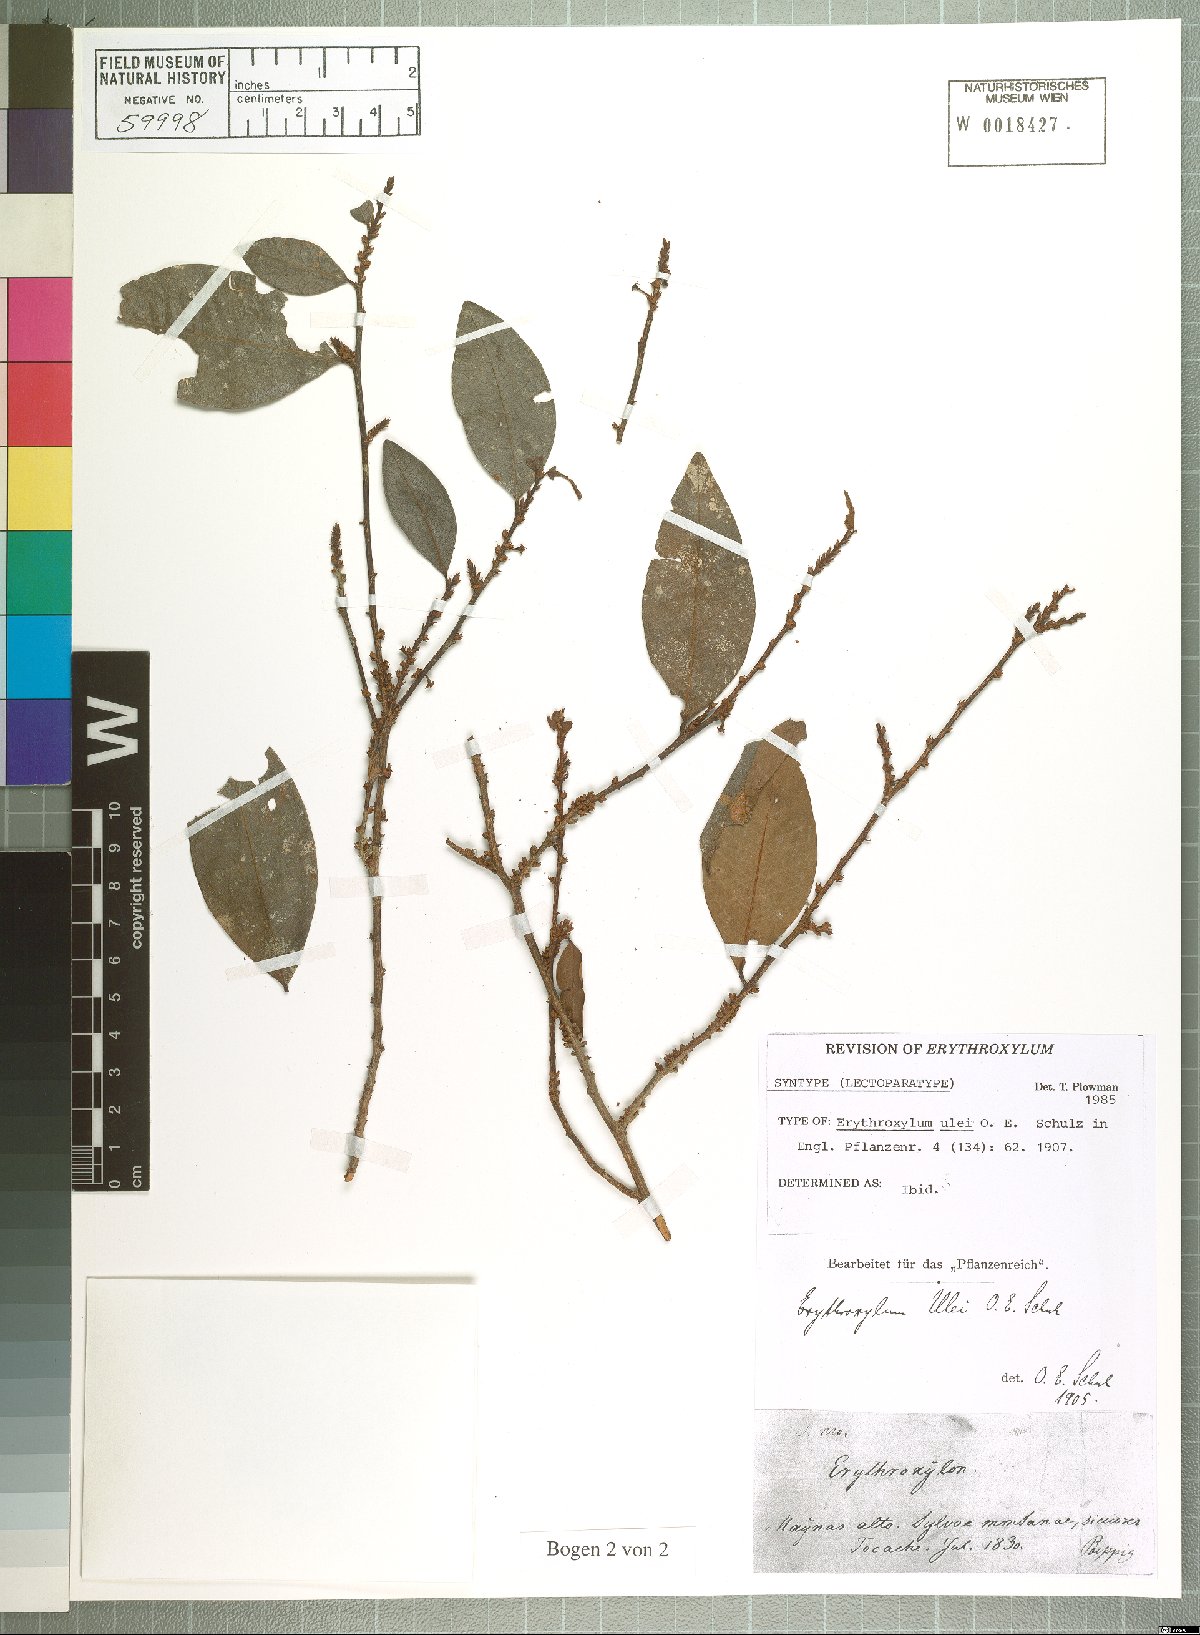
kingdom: Plantae
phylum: Tracheophyta
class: Magnoliopsida
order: Malpighiales
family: Erythroxylaceae
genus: Erythroxylum
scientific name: Erythroxylum ulei
